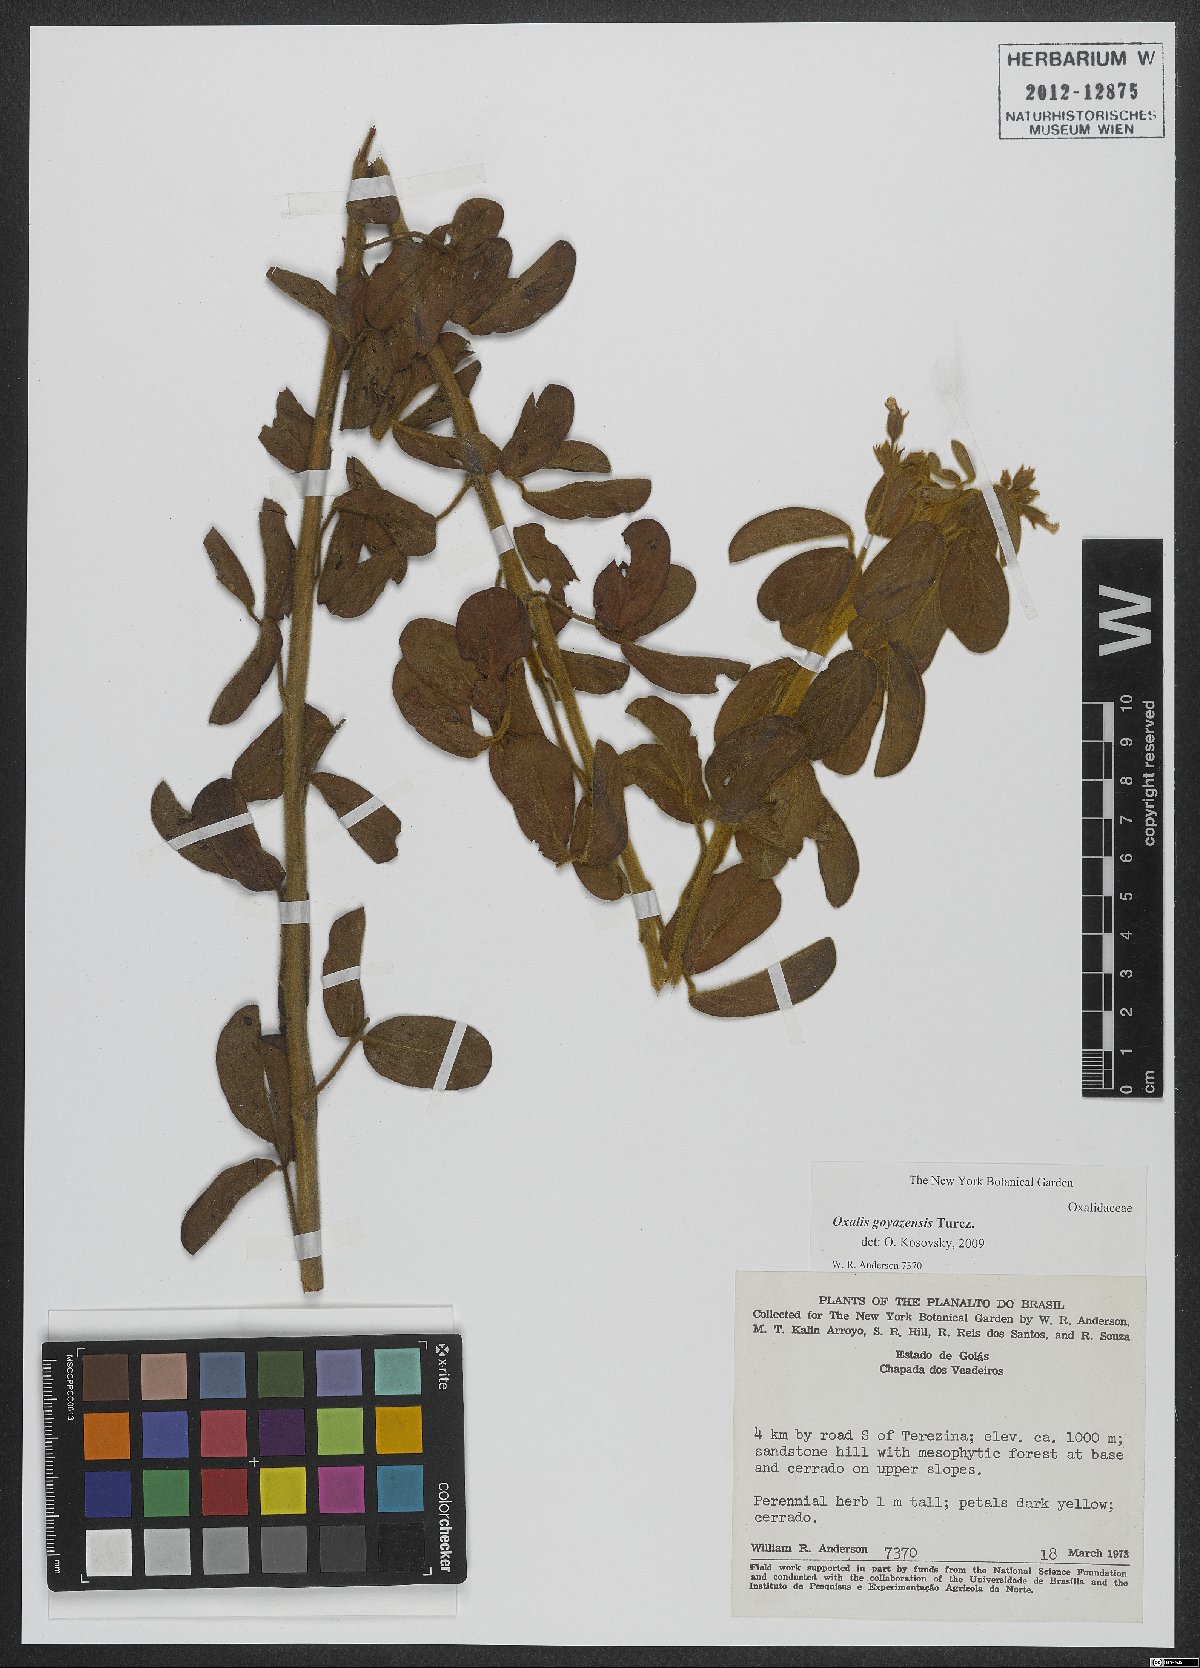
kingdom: Plantae
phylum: Tracheophyta
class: Magnoliopsida
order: Oxalidales
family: Oxalidaceae
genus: Oxalis
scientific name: Oxalis goyazensis
